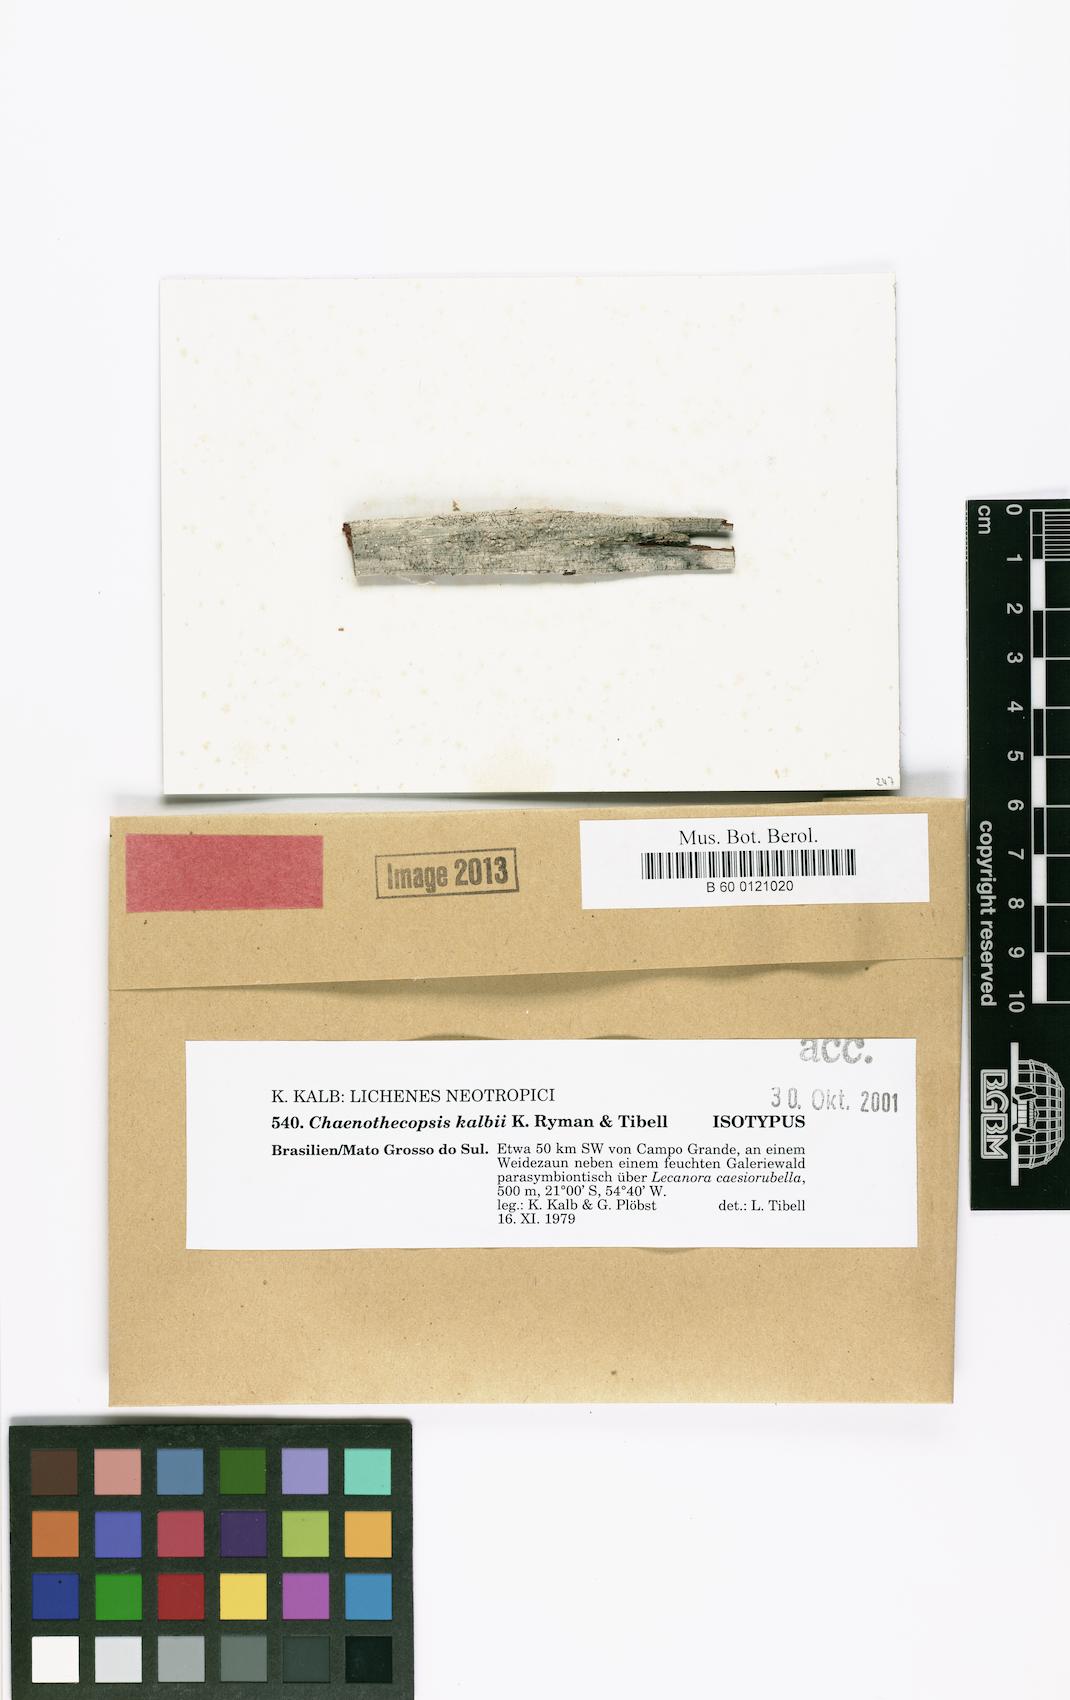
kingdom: Fungi
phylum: Ascomycota
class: Eurotiomycetes
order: Mycocaliciales
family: Mycocaliciaceae
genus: Chaenothecopsis
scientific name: Chaenothecopsis kalbii
